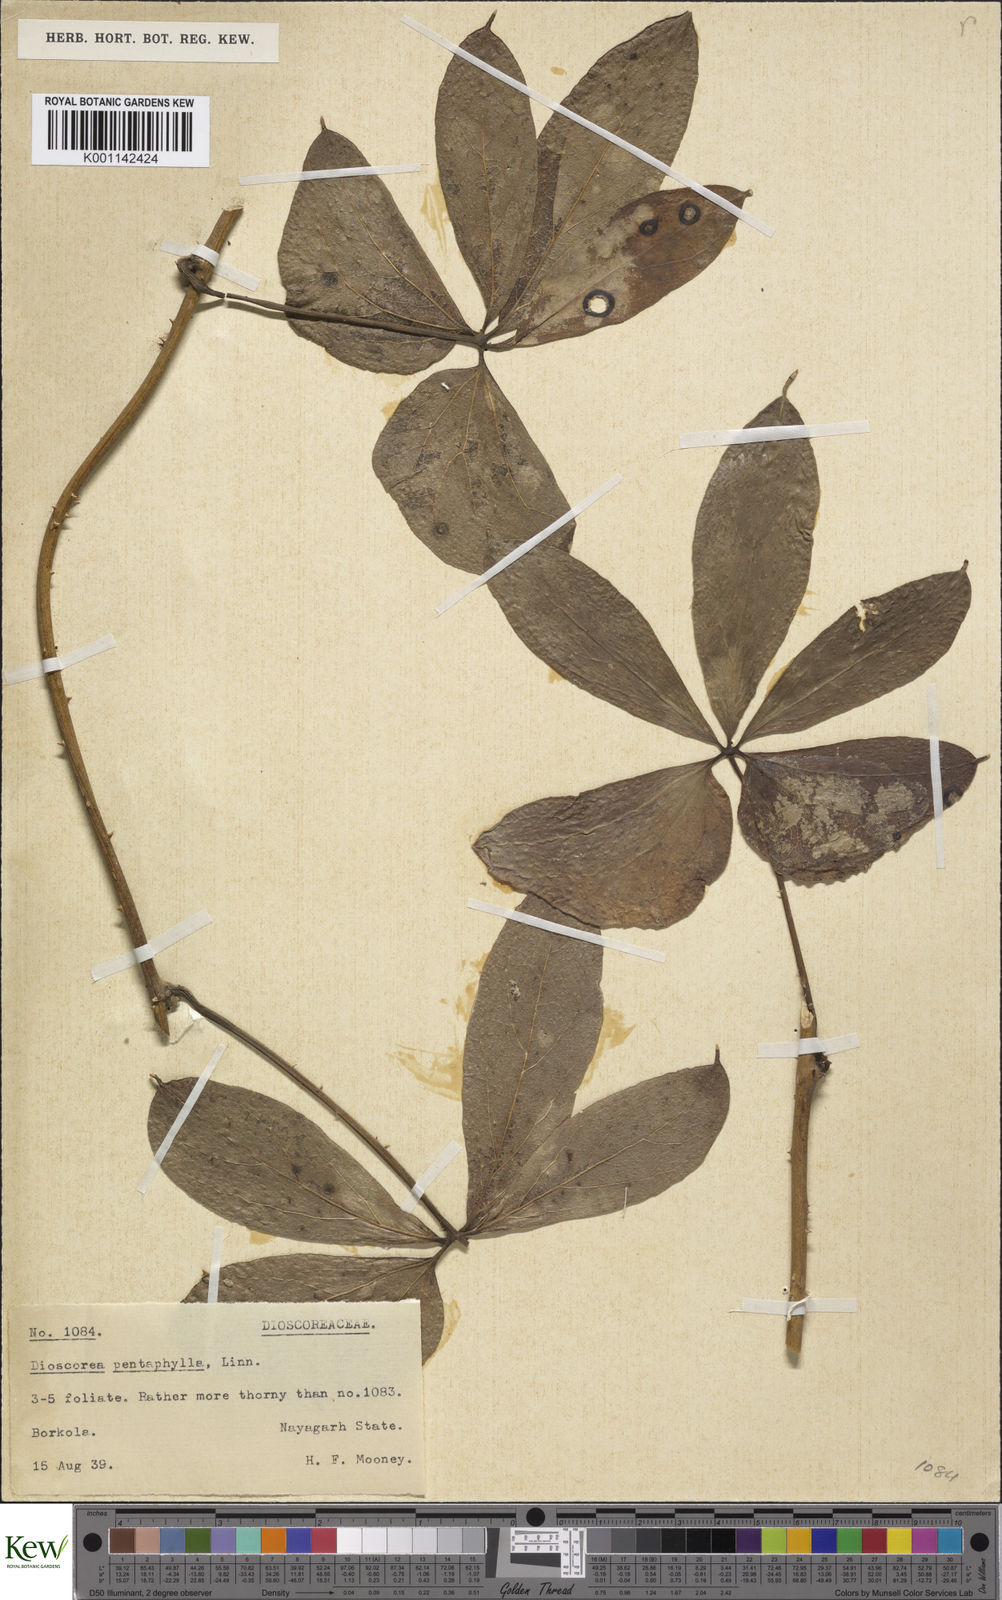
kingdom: Plantae
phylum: Tracheophyta
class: Liliopsida
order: Dioscoreales
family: Dioscoreaceae
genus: Dioscorea
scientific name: Dioscorea pentaphylla
